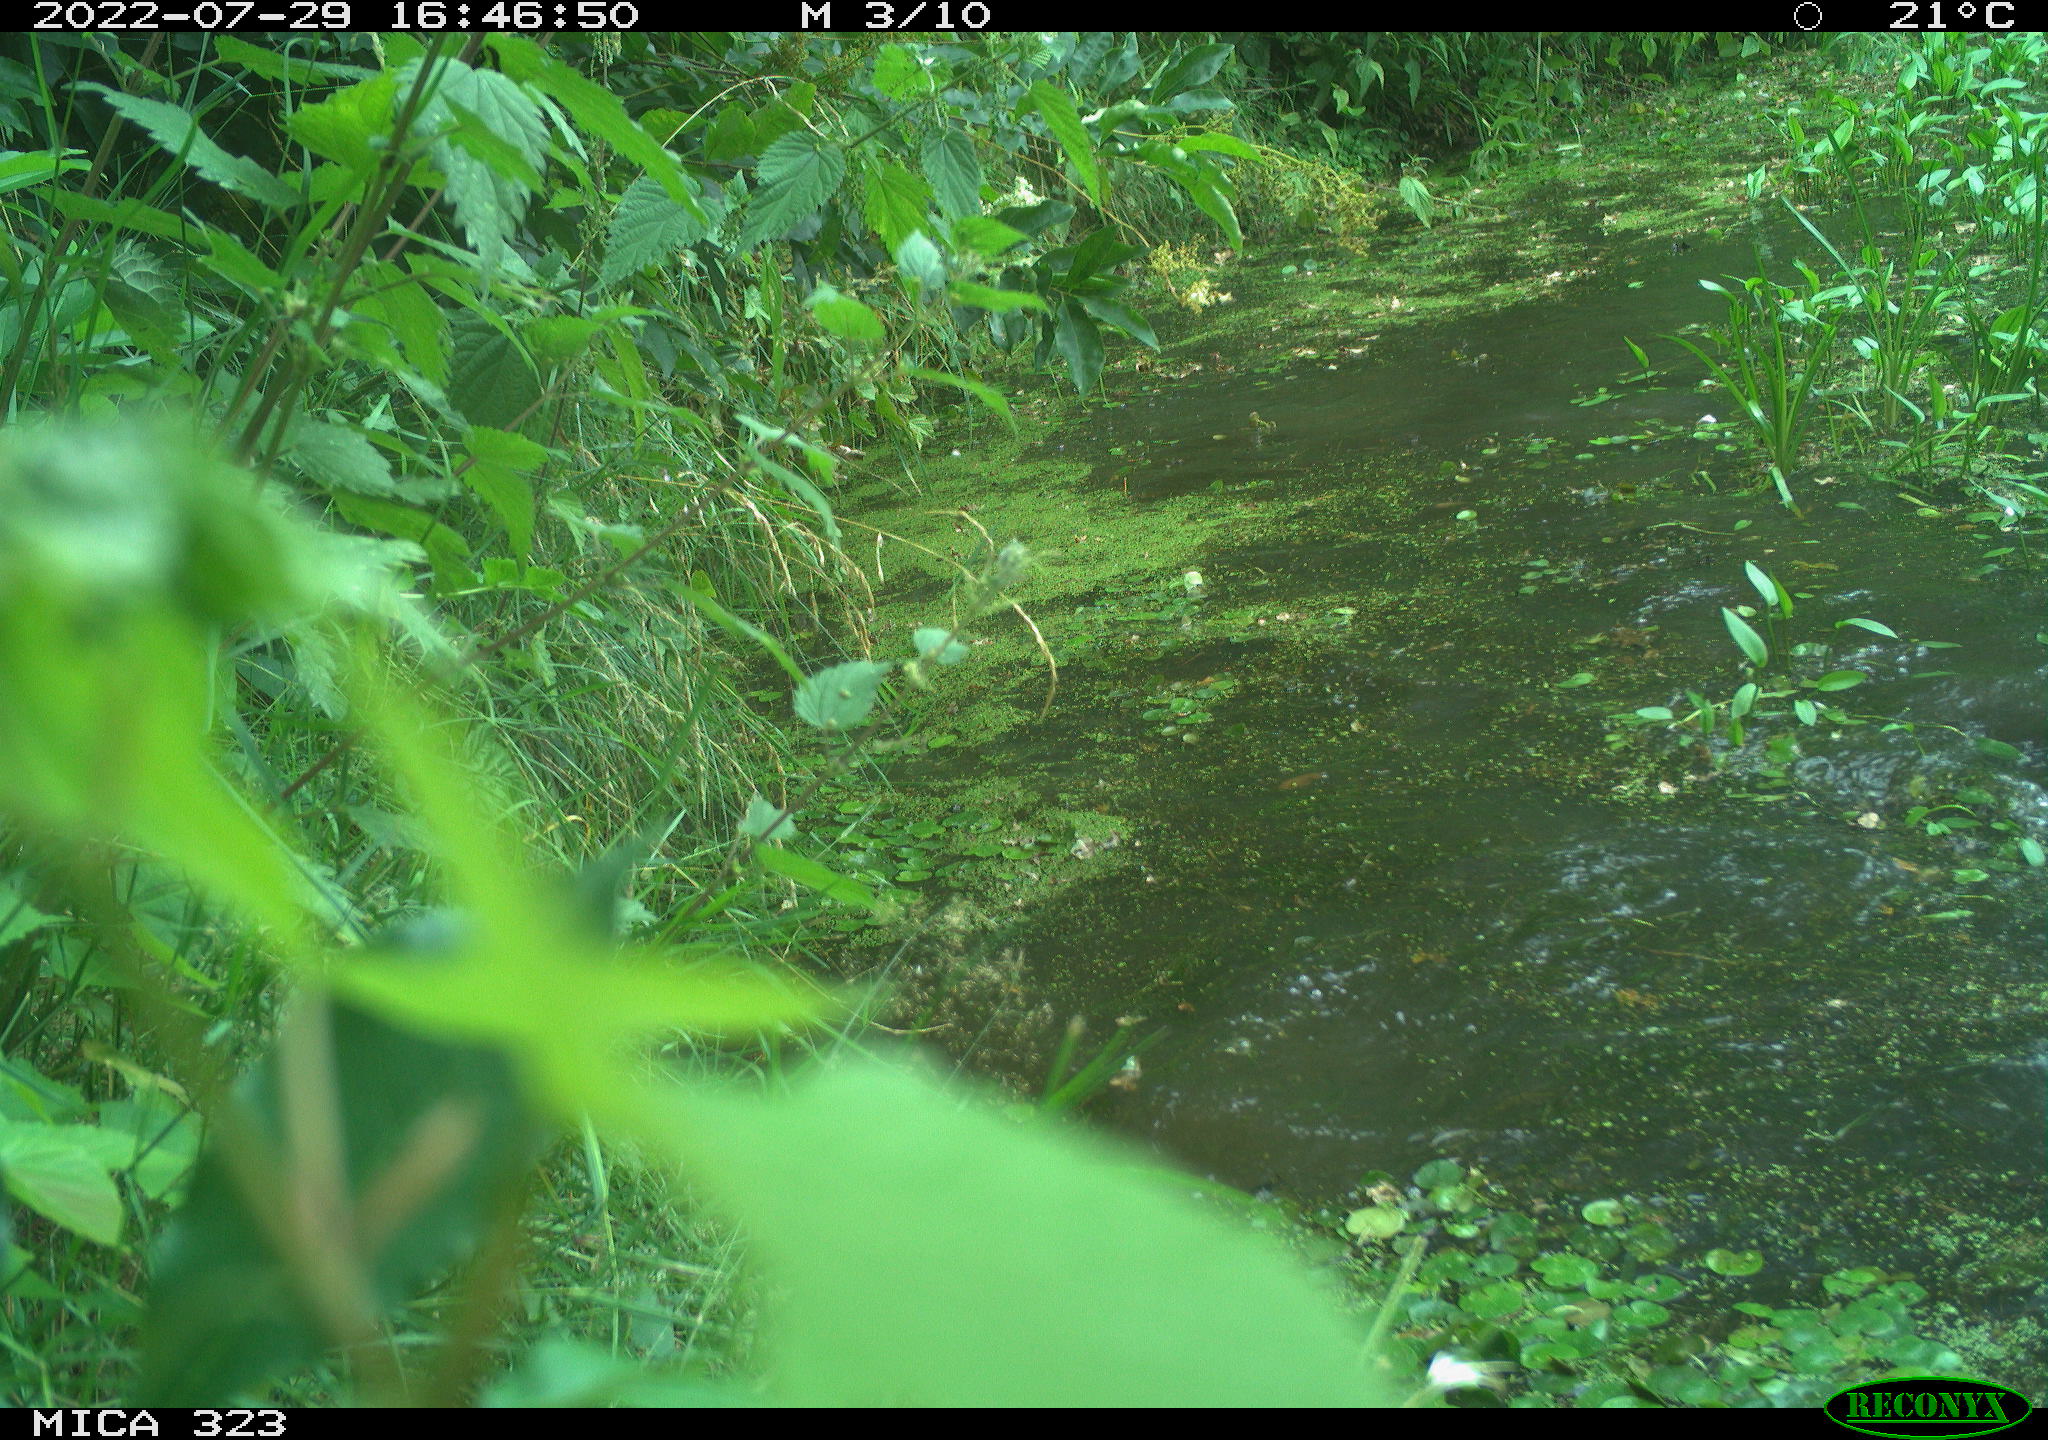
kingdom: Animalia
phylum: Chordata
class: Aves
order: Anseriformes
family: Anatidae
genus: Anas
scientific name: Anas
